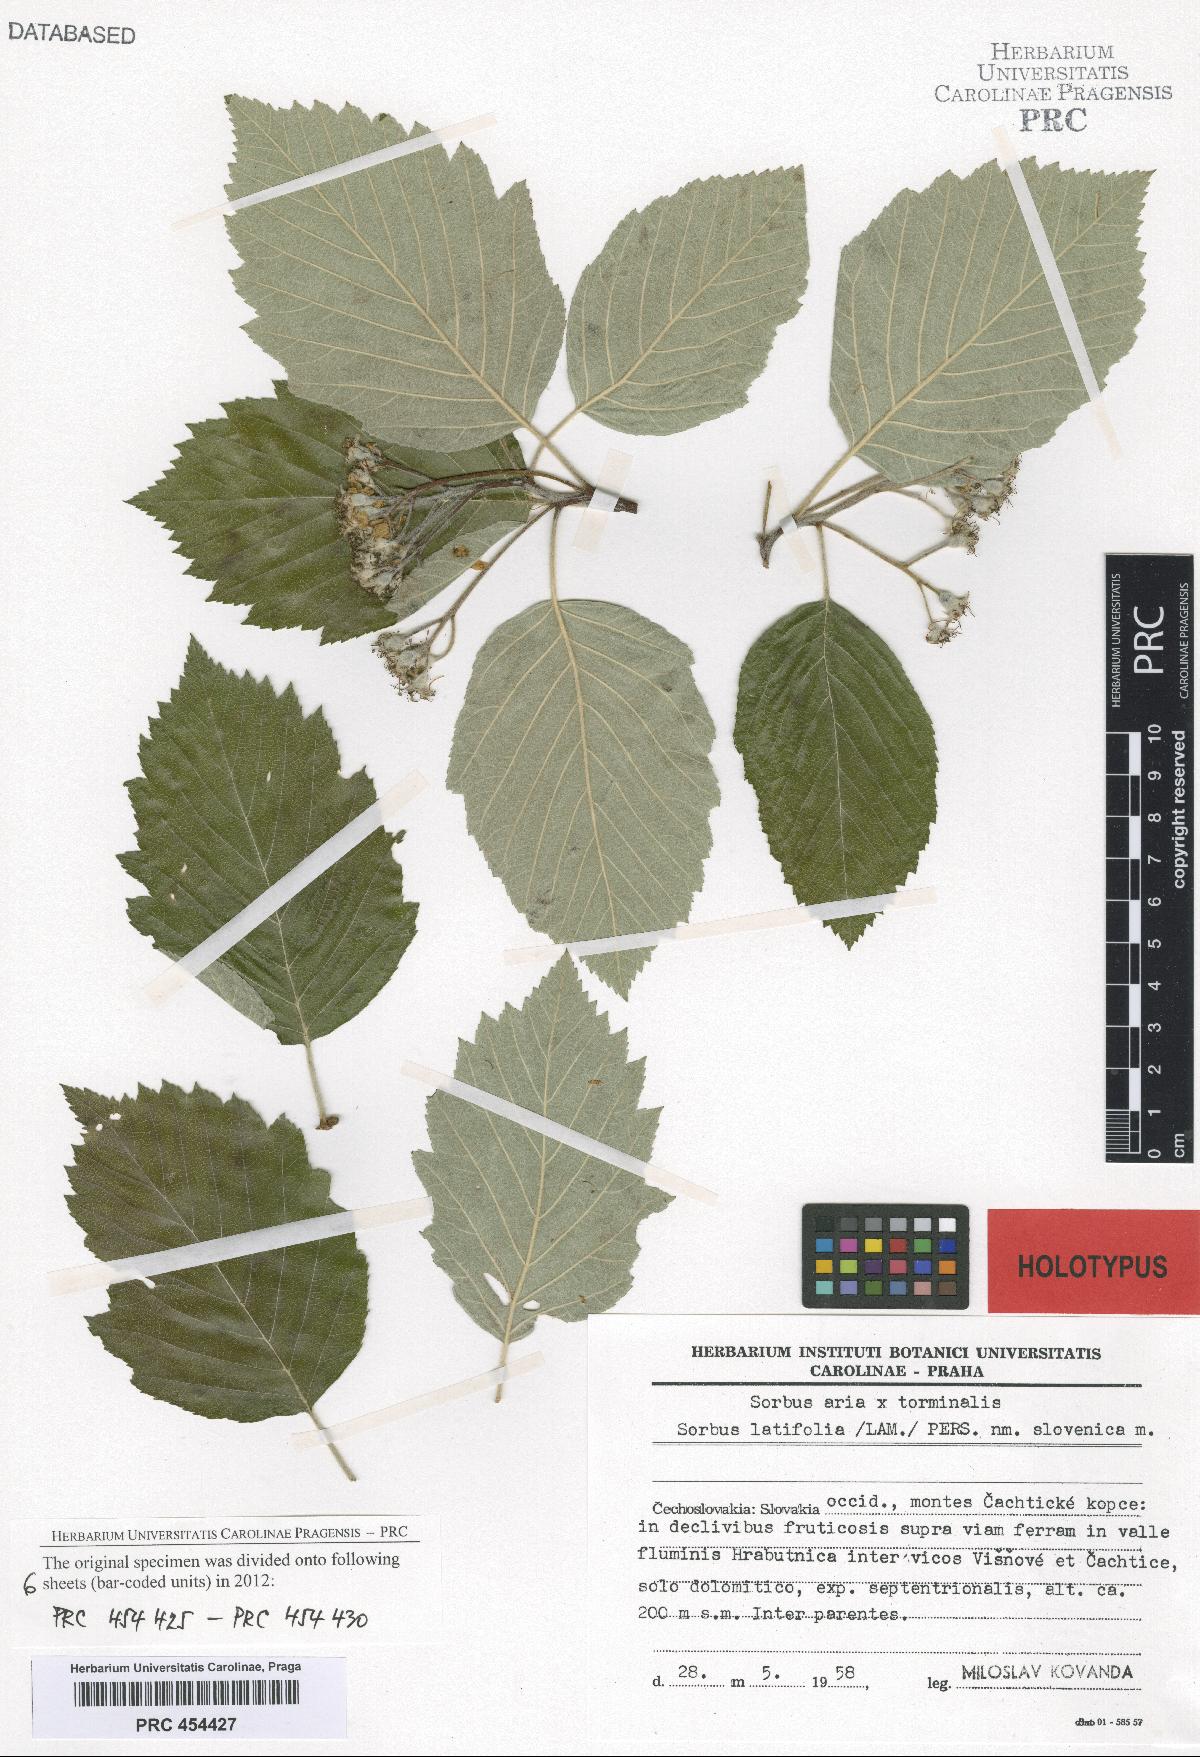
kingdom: Plantae
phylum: Tracheophyta
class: Magnoliopsida
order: Rosales
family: Rosaceae
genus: Karpatiosorbus
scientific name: Karpatiosorbus slovenica
